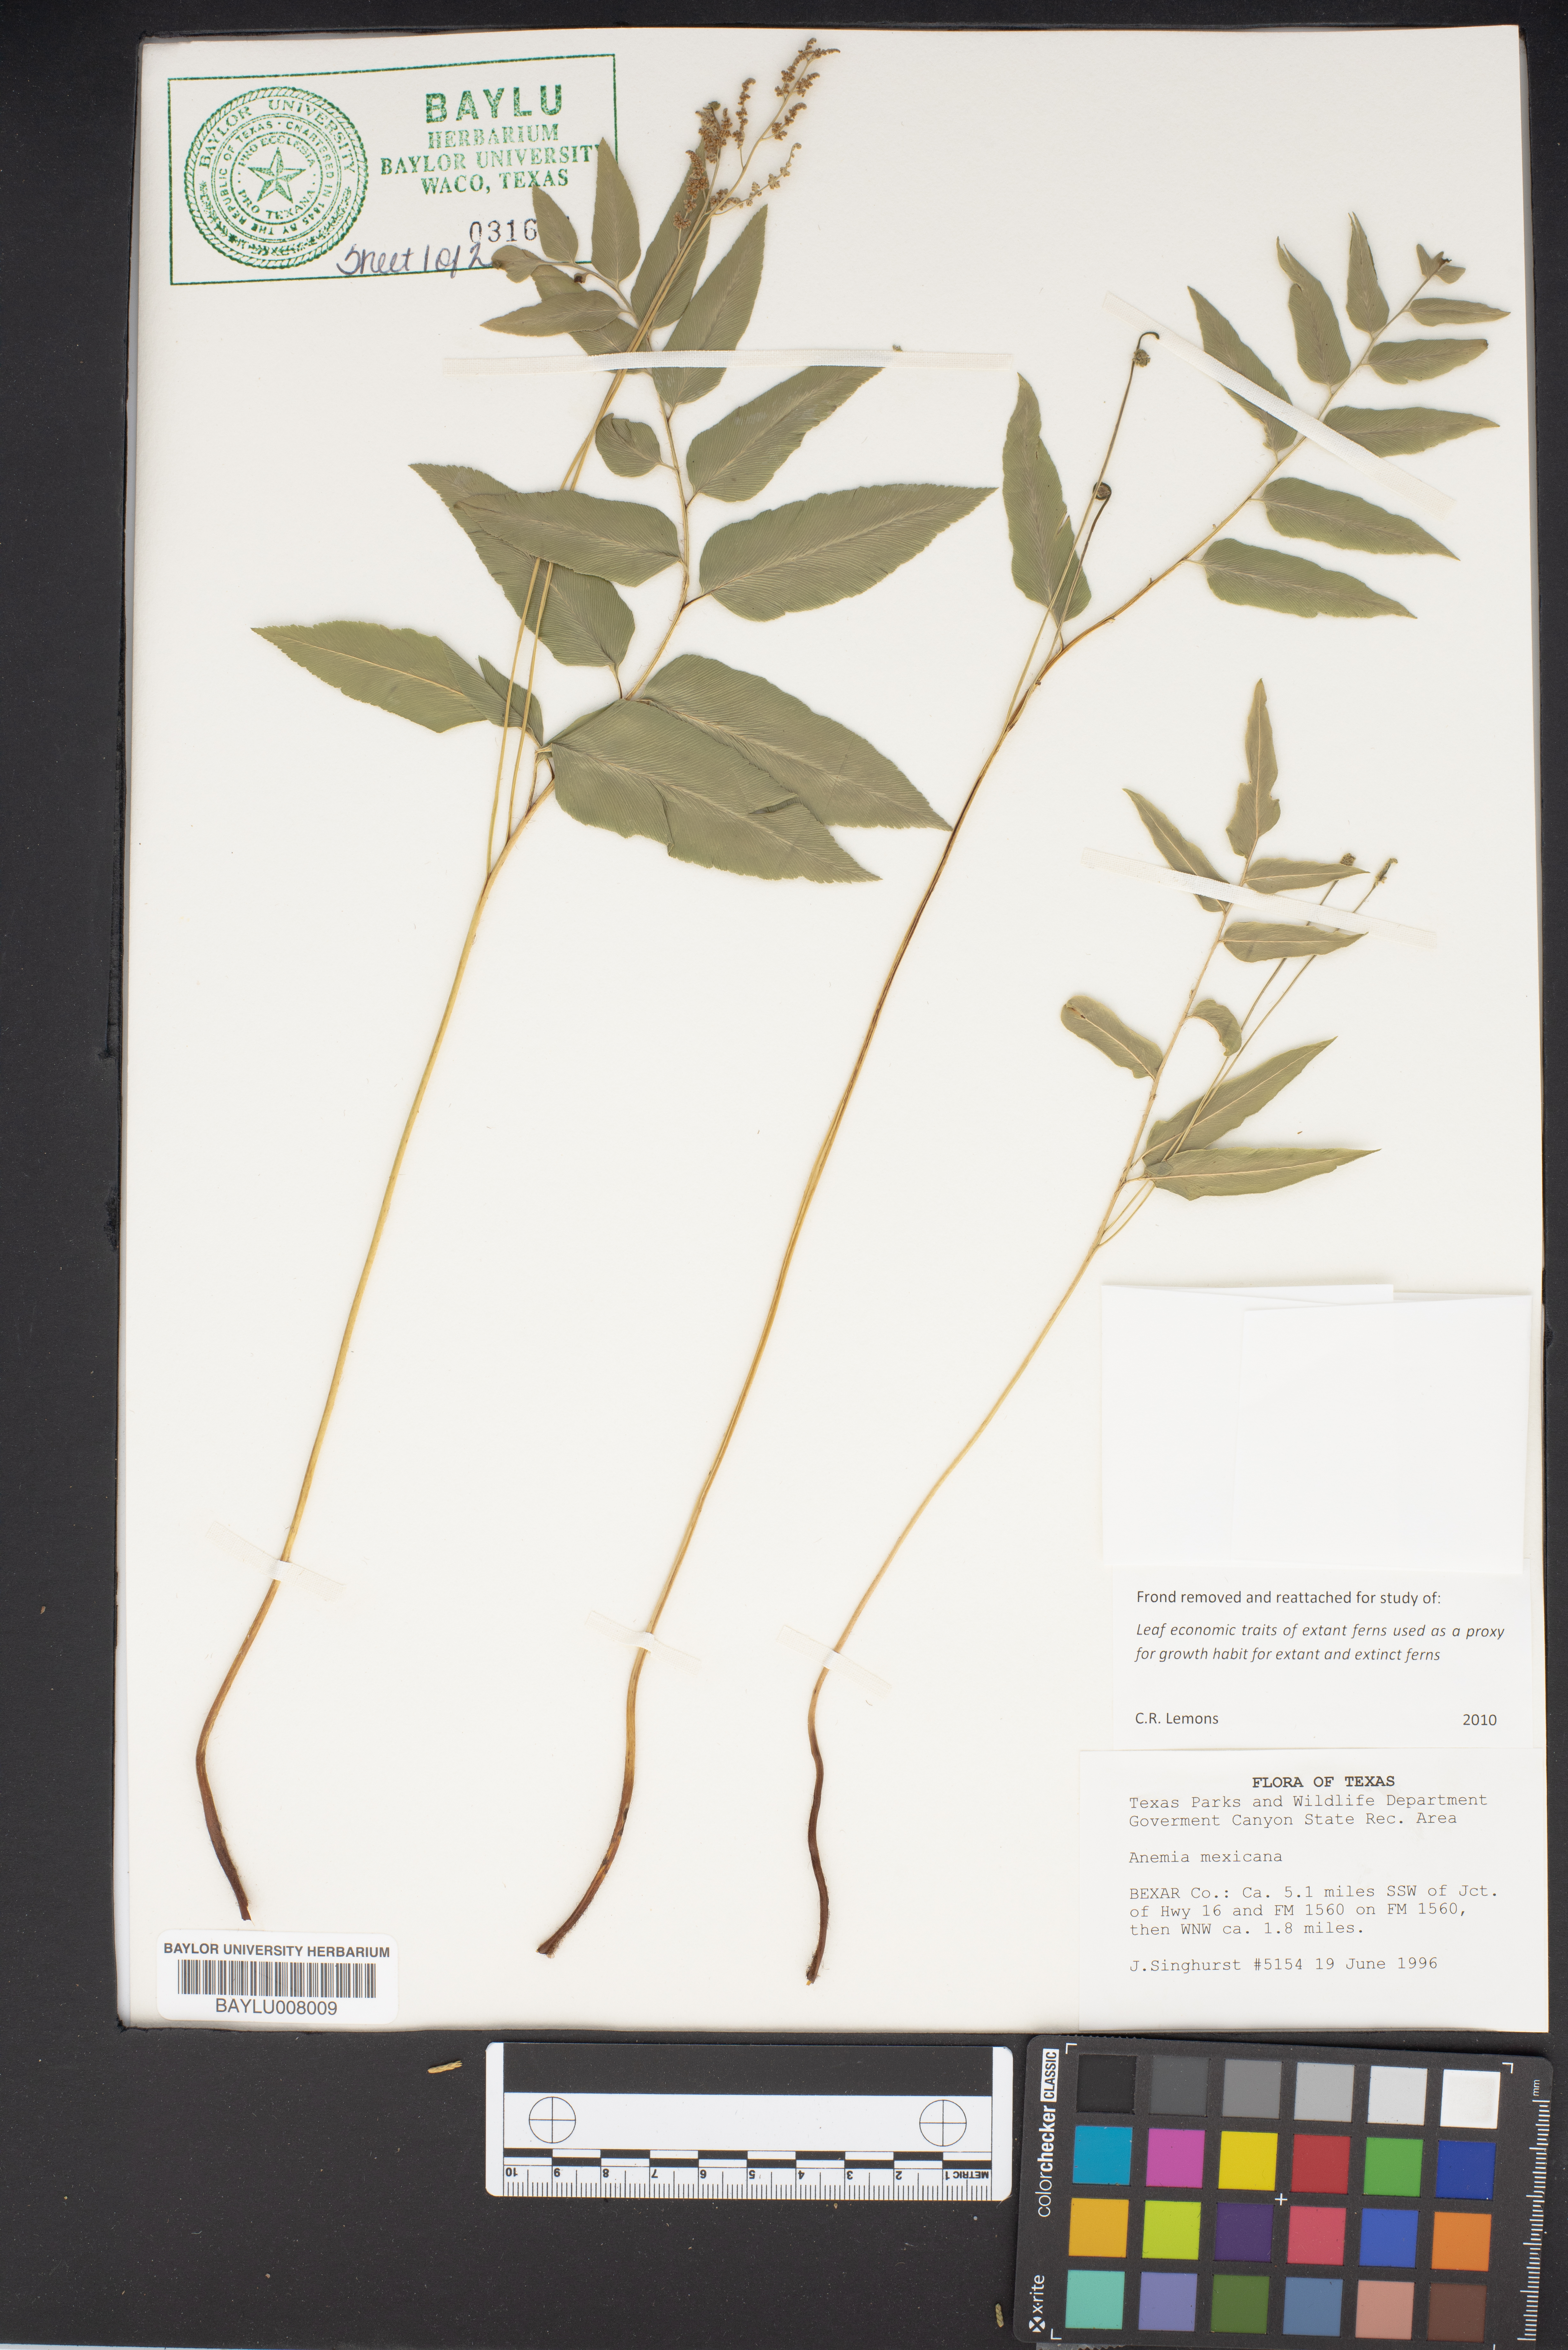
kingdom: Plantae
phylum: Tracheophyta
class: Polypodiopsida
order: Schizaeales
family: Anemiaceae
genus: Anemia
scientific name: Anemia mexicana
